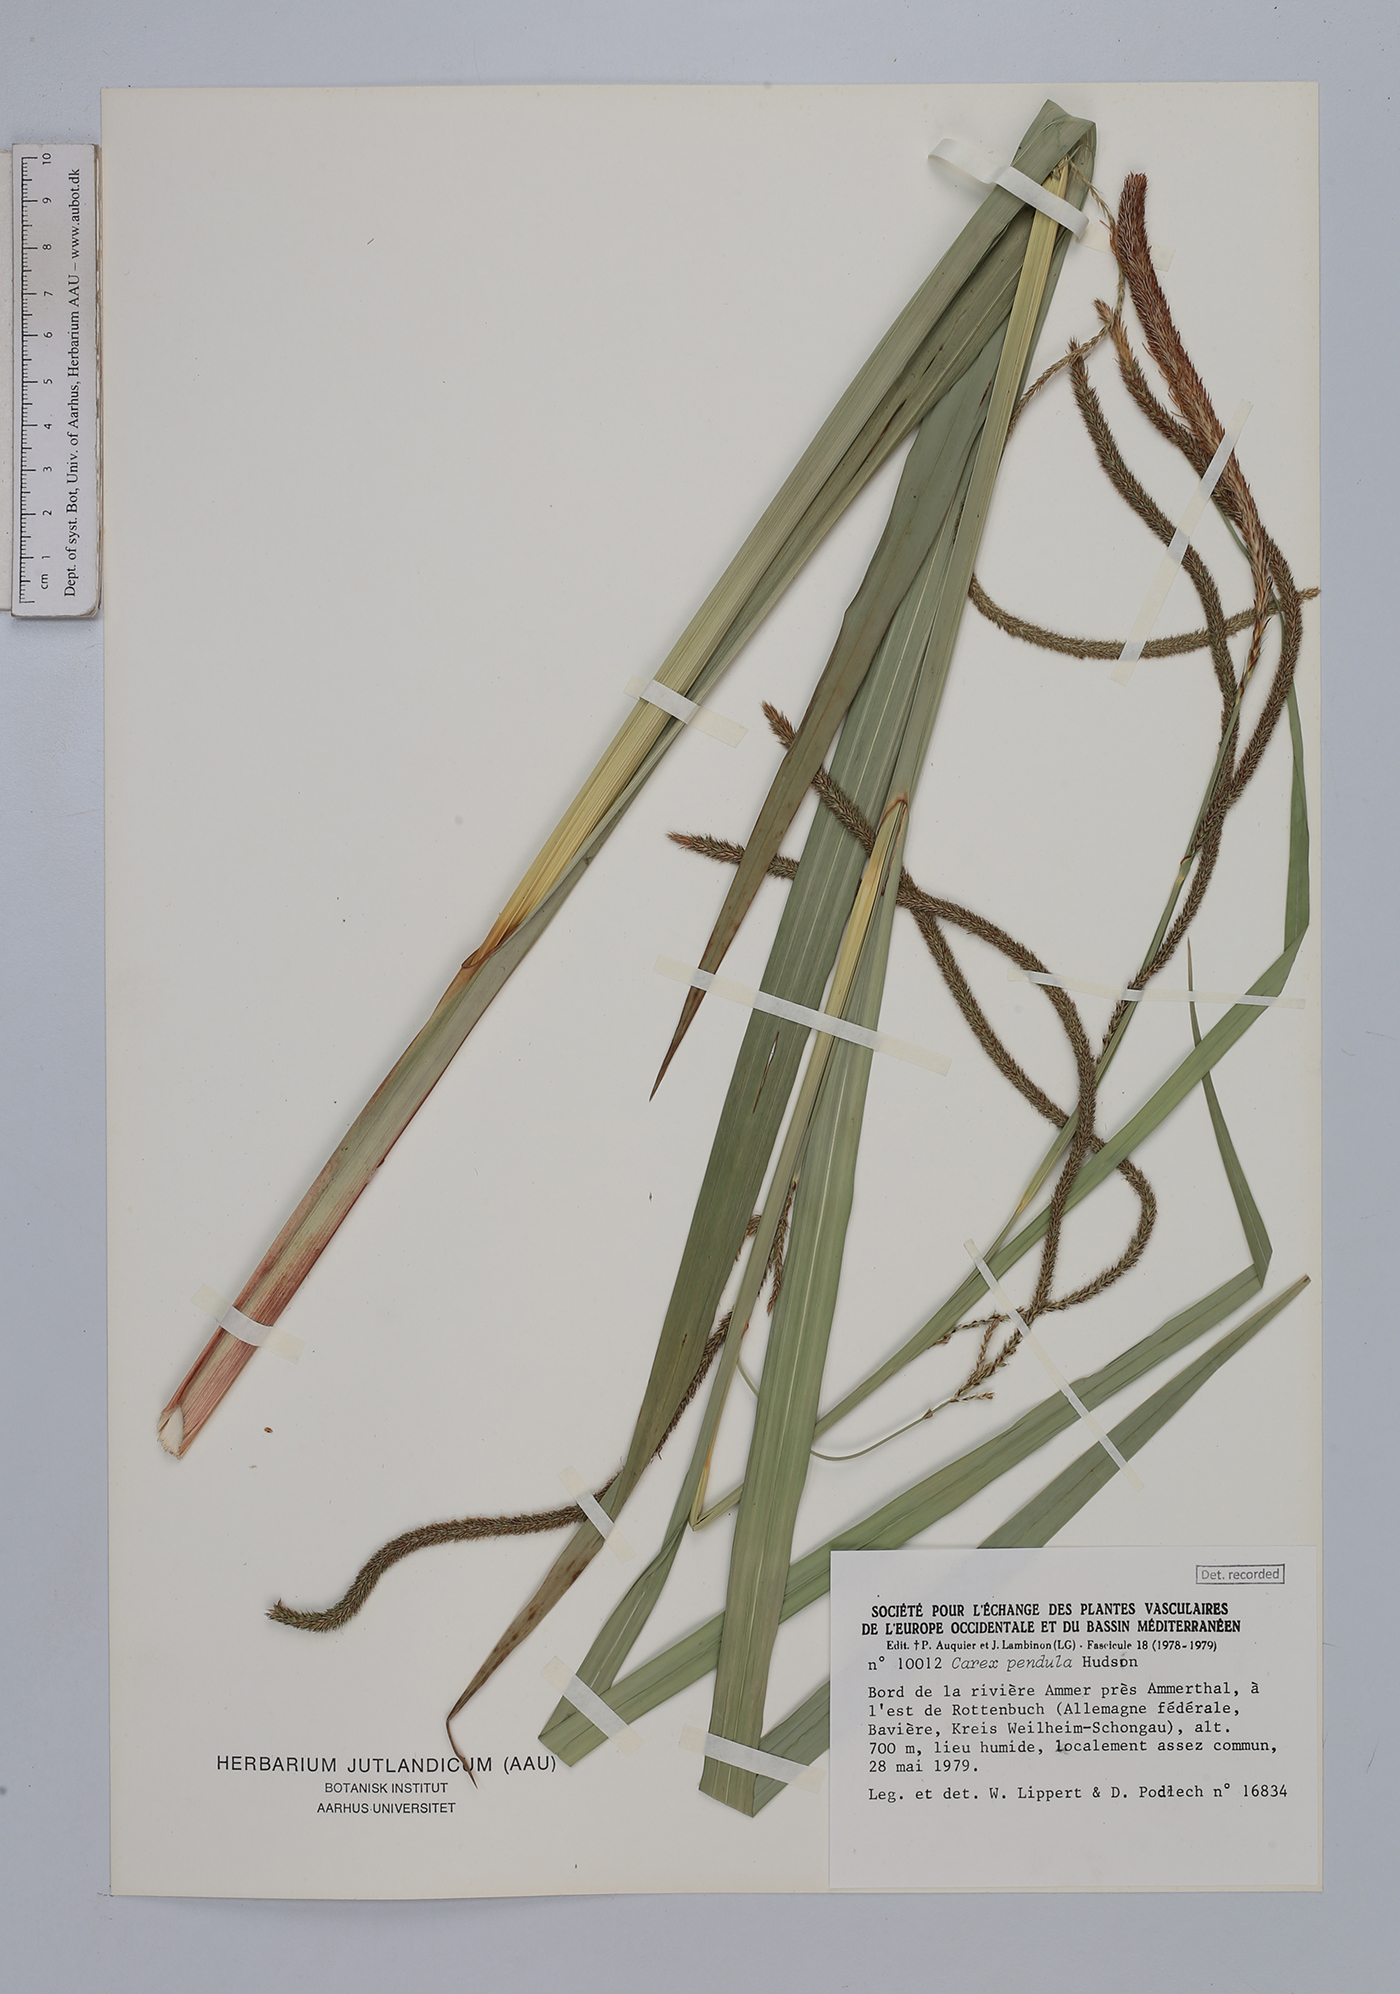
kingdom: Plantae
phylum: Tracheophyta
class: Liliopsida
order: Poales
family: Cyperaceae
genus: Carex
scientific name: Carex pendula
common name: Pendulous sedge
